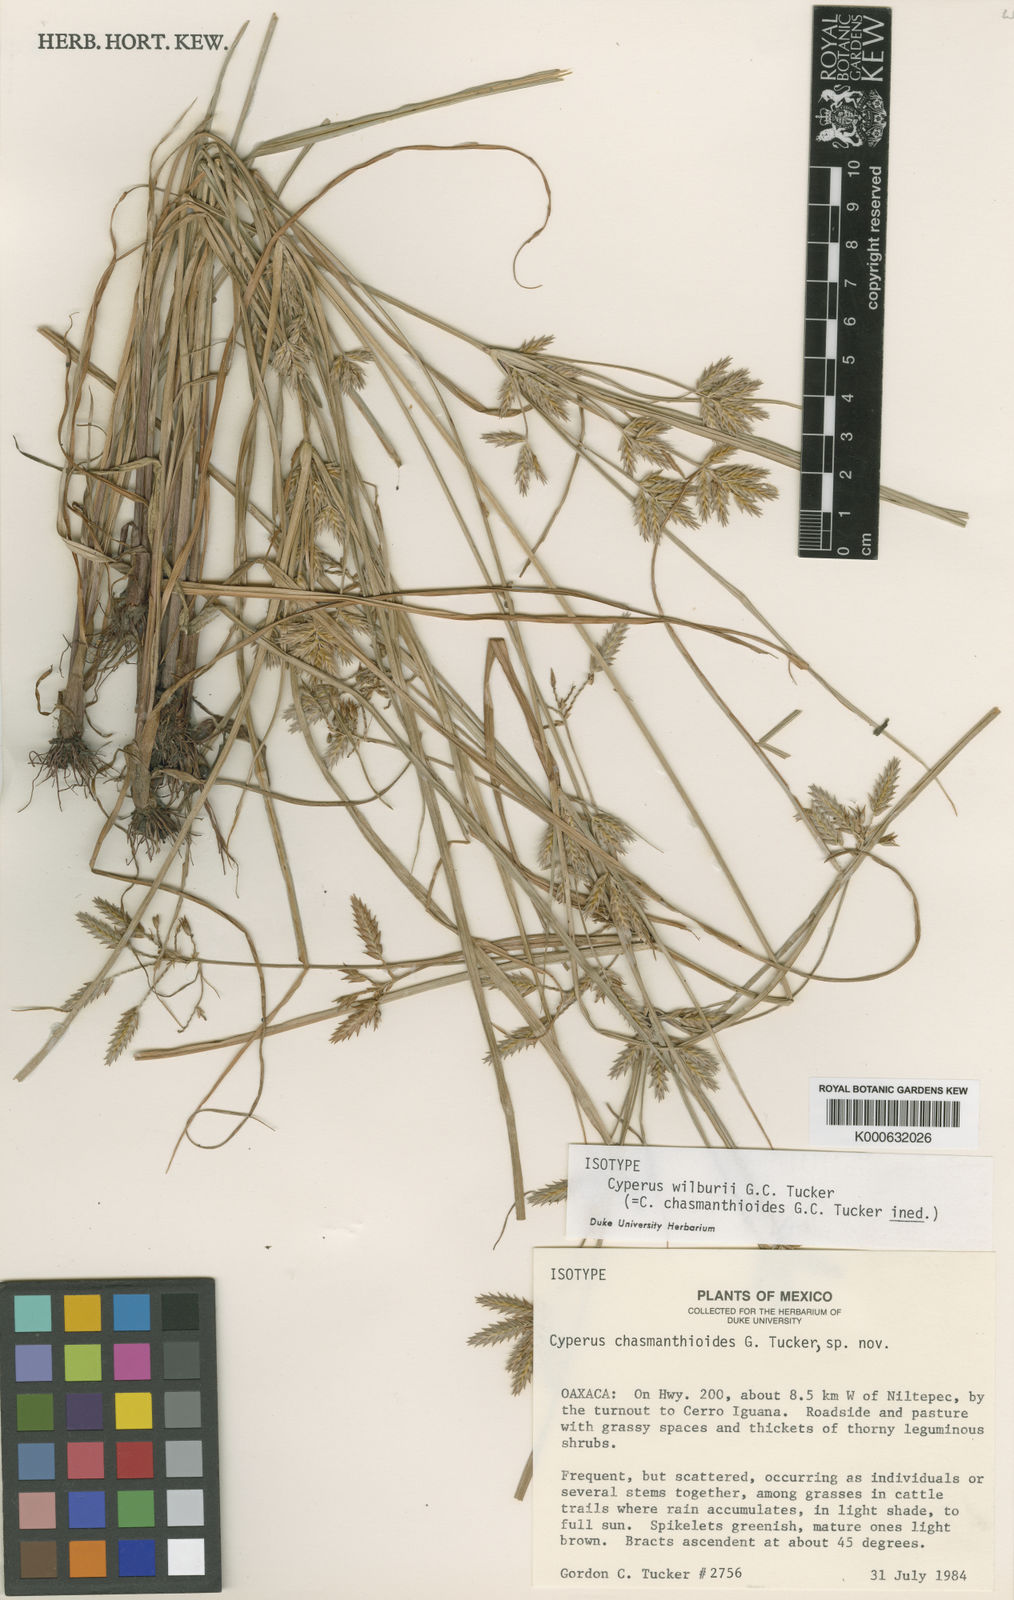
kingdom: Plantae
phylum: Tracheophyta
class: Liliopsida
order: Poales
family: Cyperaceae
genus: Cyperus
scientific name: Cyperus wilburii
